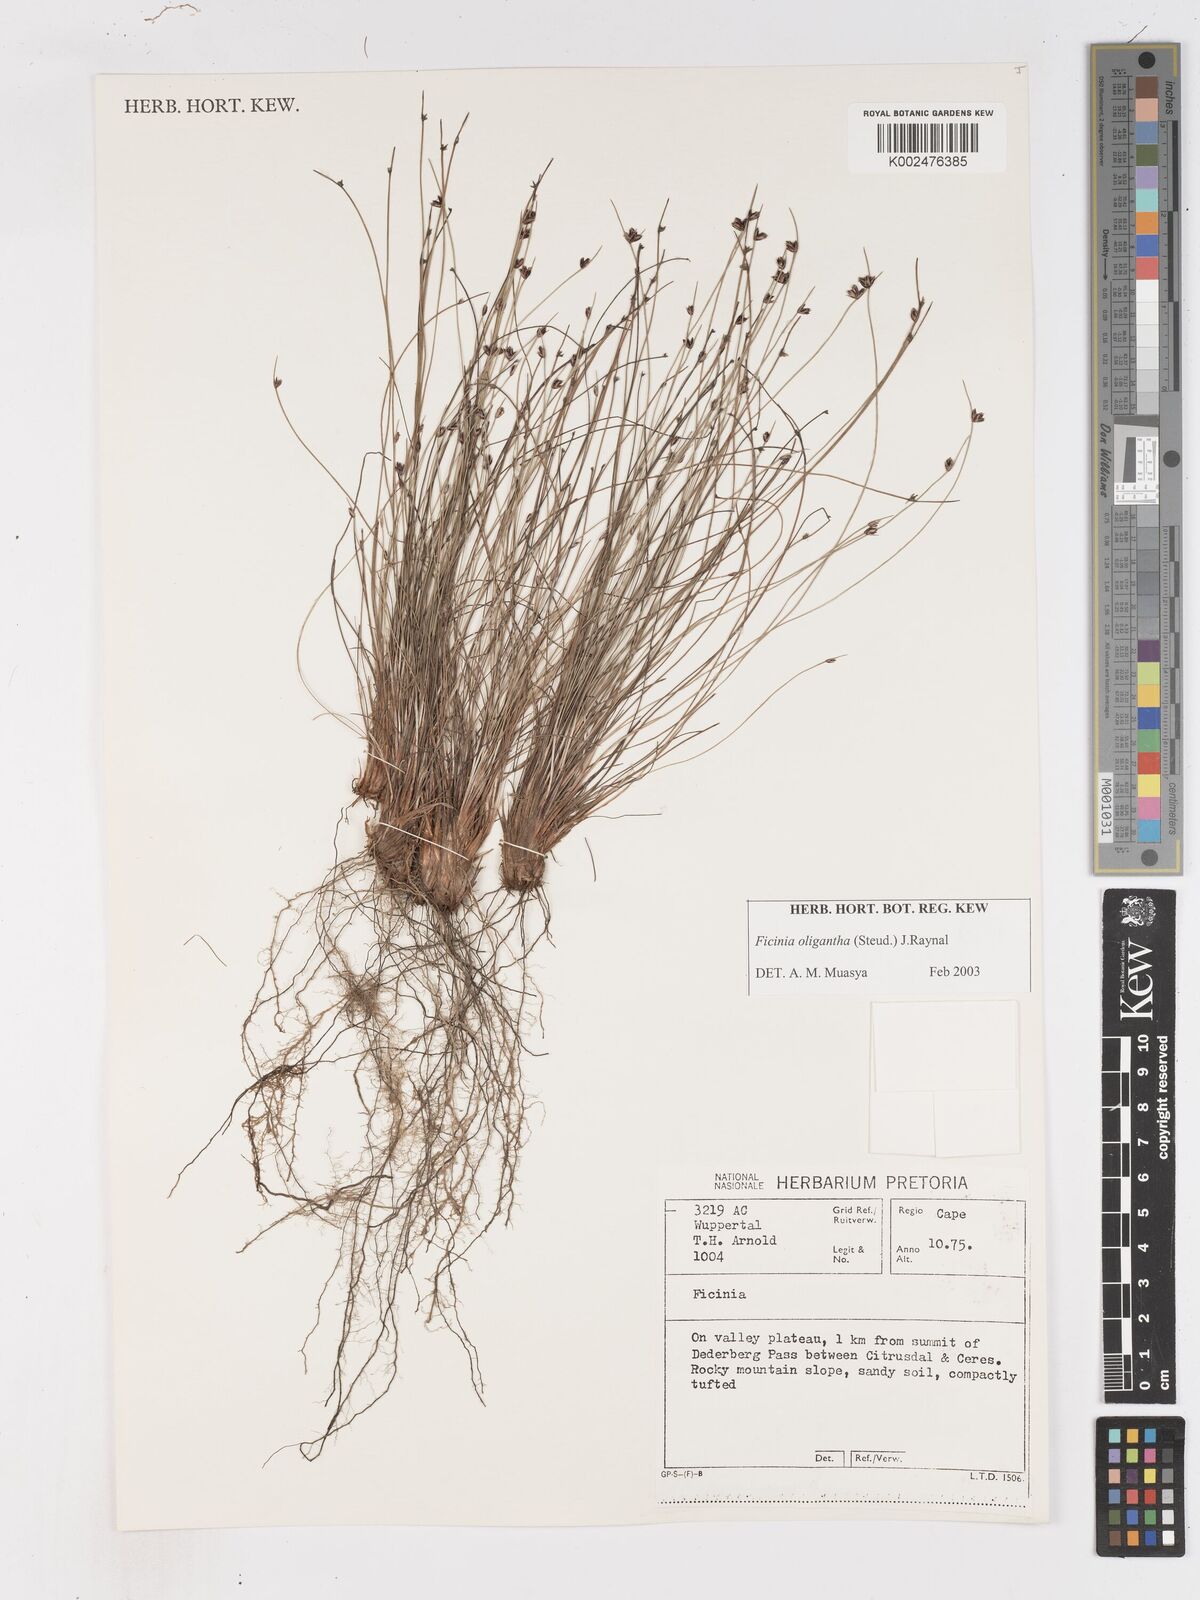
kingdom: Plantae
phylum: Tracheophyta
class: Liliopsida
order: Poales
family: Cyperaceae
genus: Ficinia
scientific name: Ficinia oligantha
